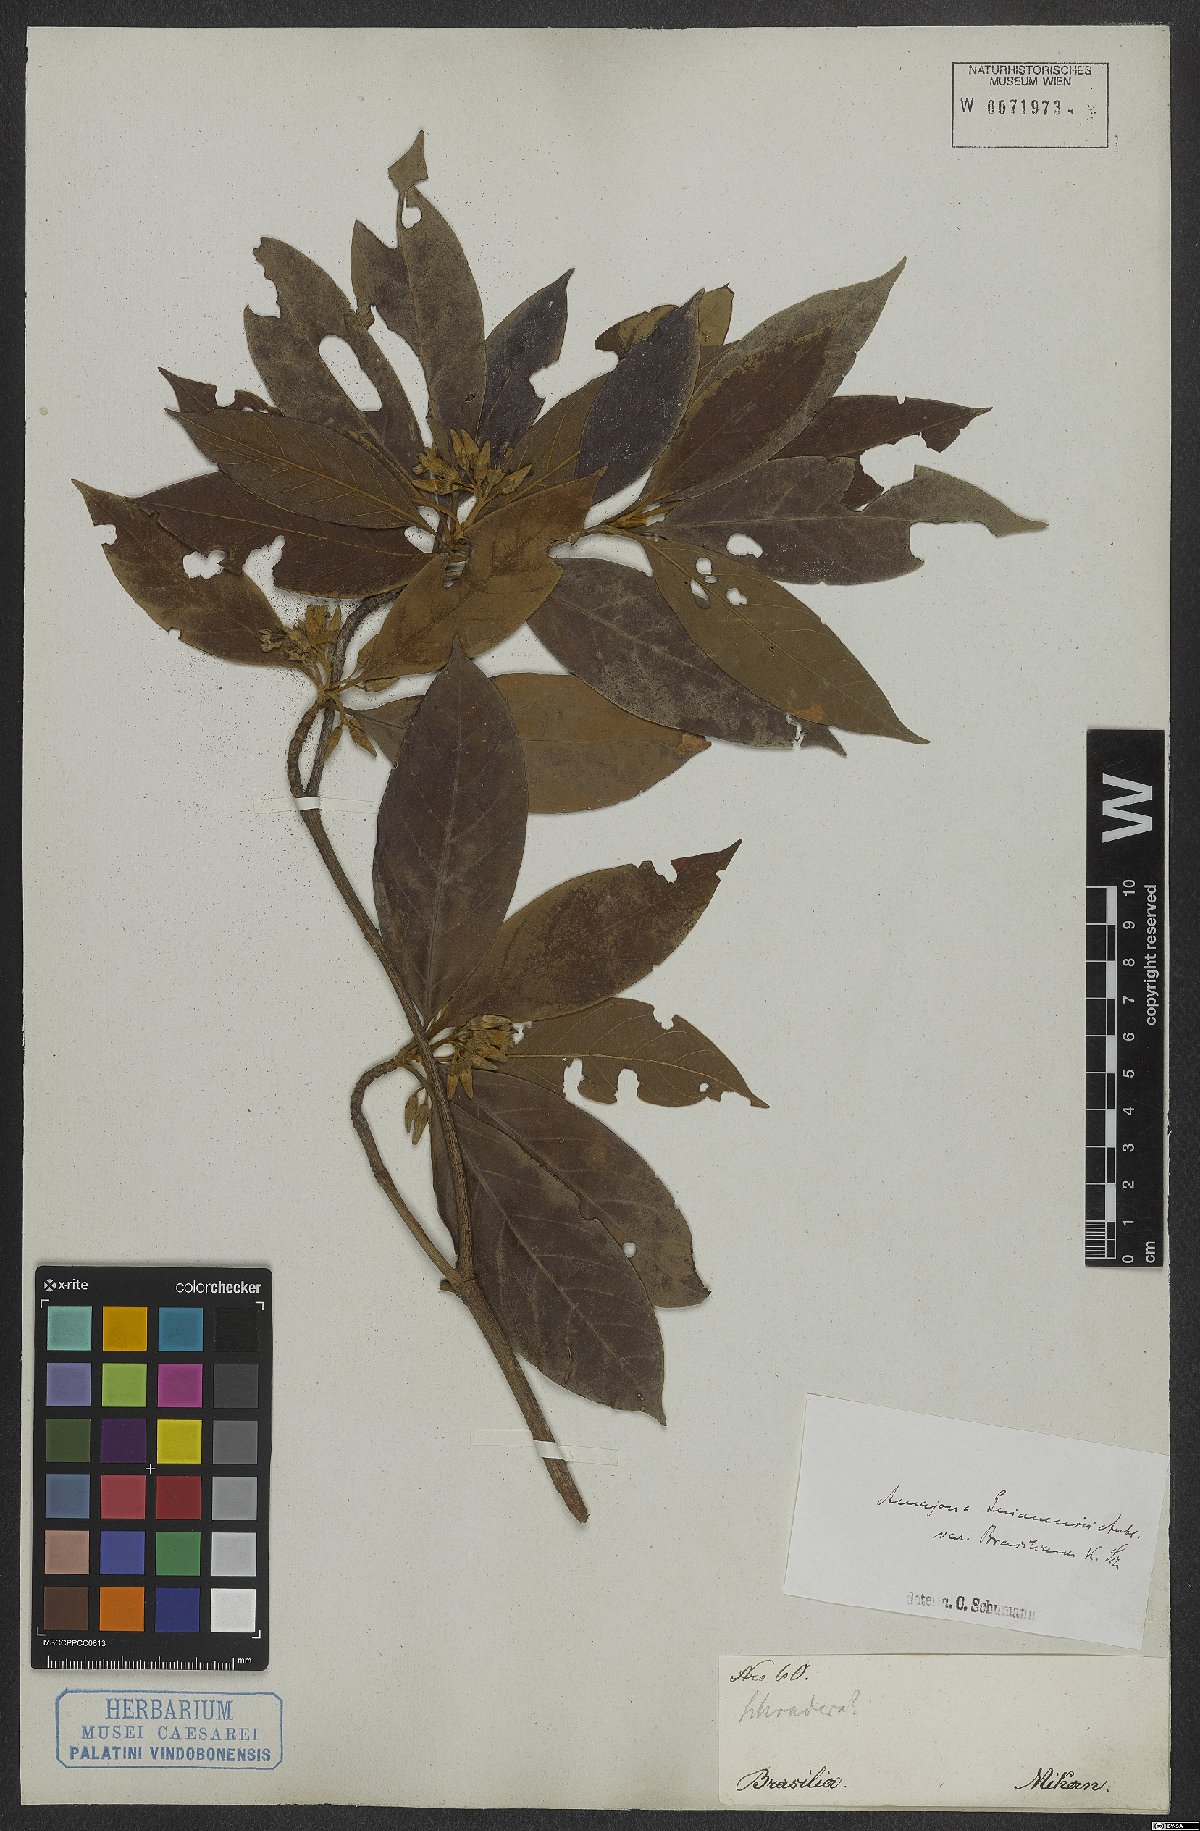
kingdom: Plantae
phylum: Tracheophyta
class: Magnoliopsida
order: Gentianales
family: Rubiaceae
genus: Amaioua
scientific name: Amaioua guianensis
